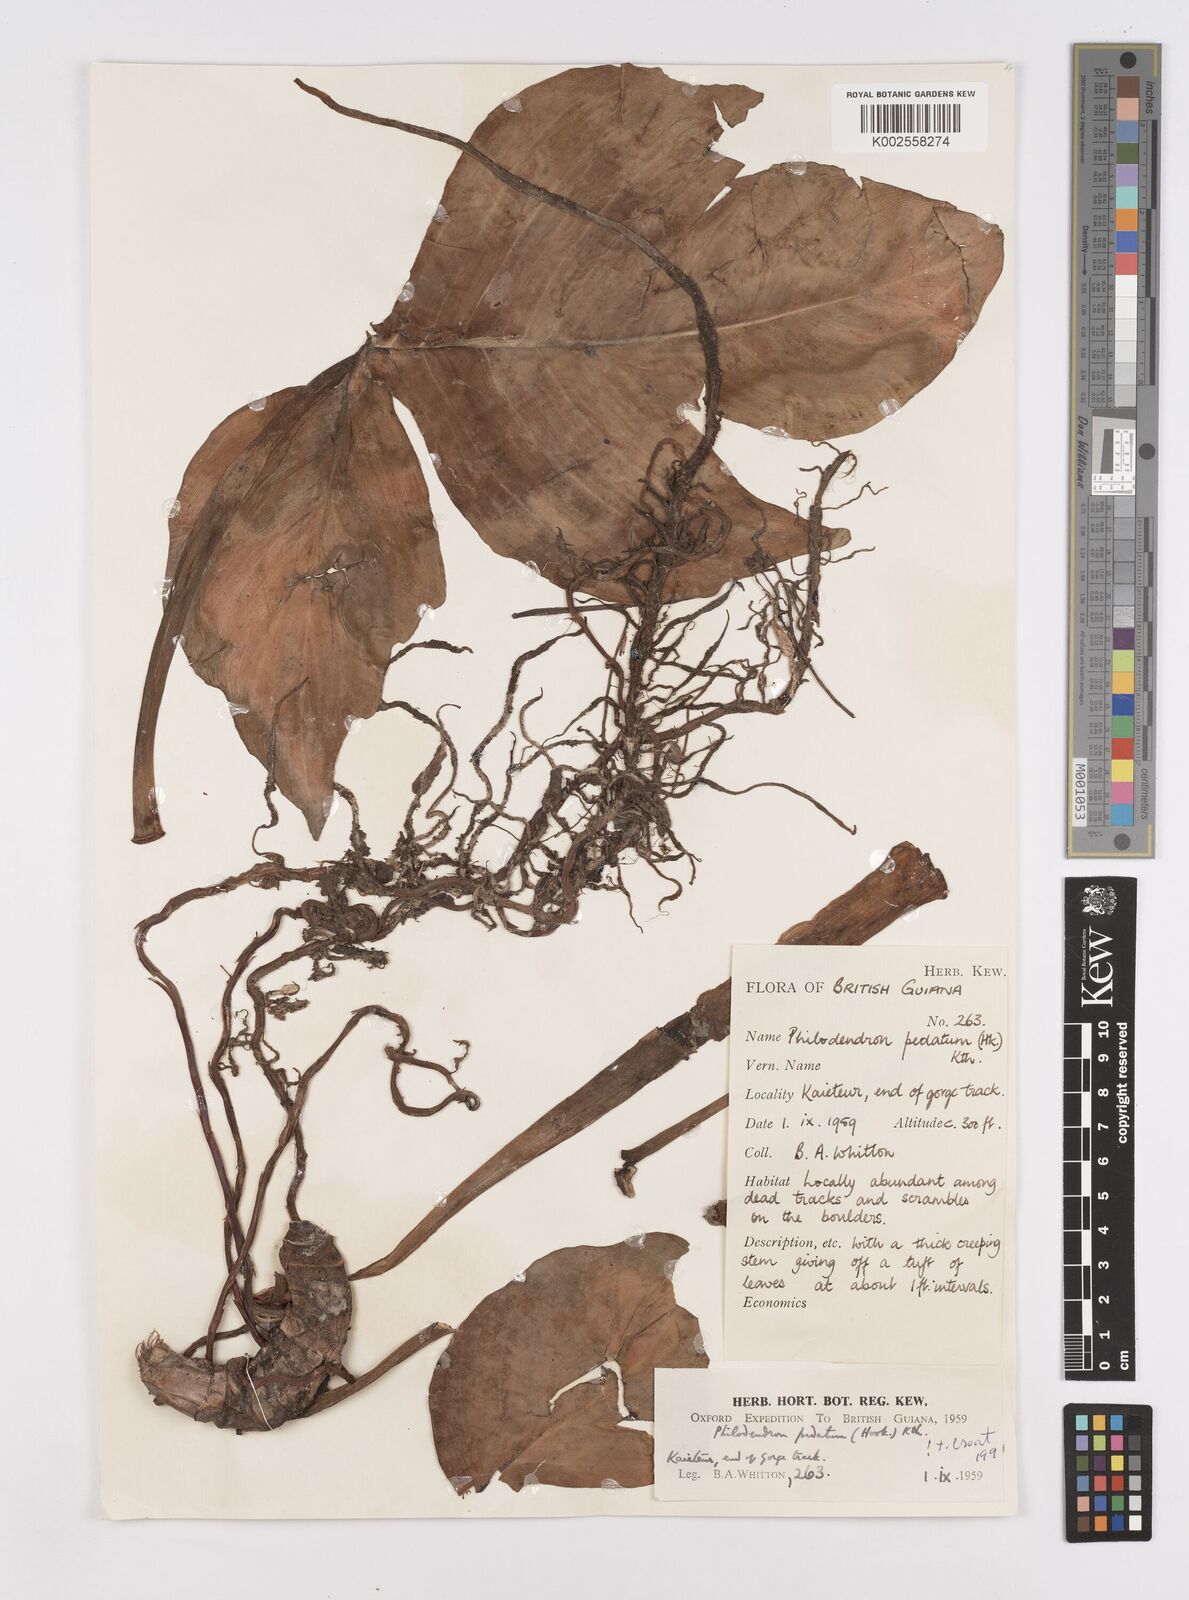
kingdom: Plantae
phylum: Tracheophyta
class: Liliopsida
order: Alismatales
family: Araceae
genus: Philodendron
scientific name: Philodendron pedatum
